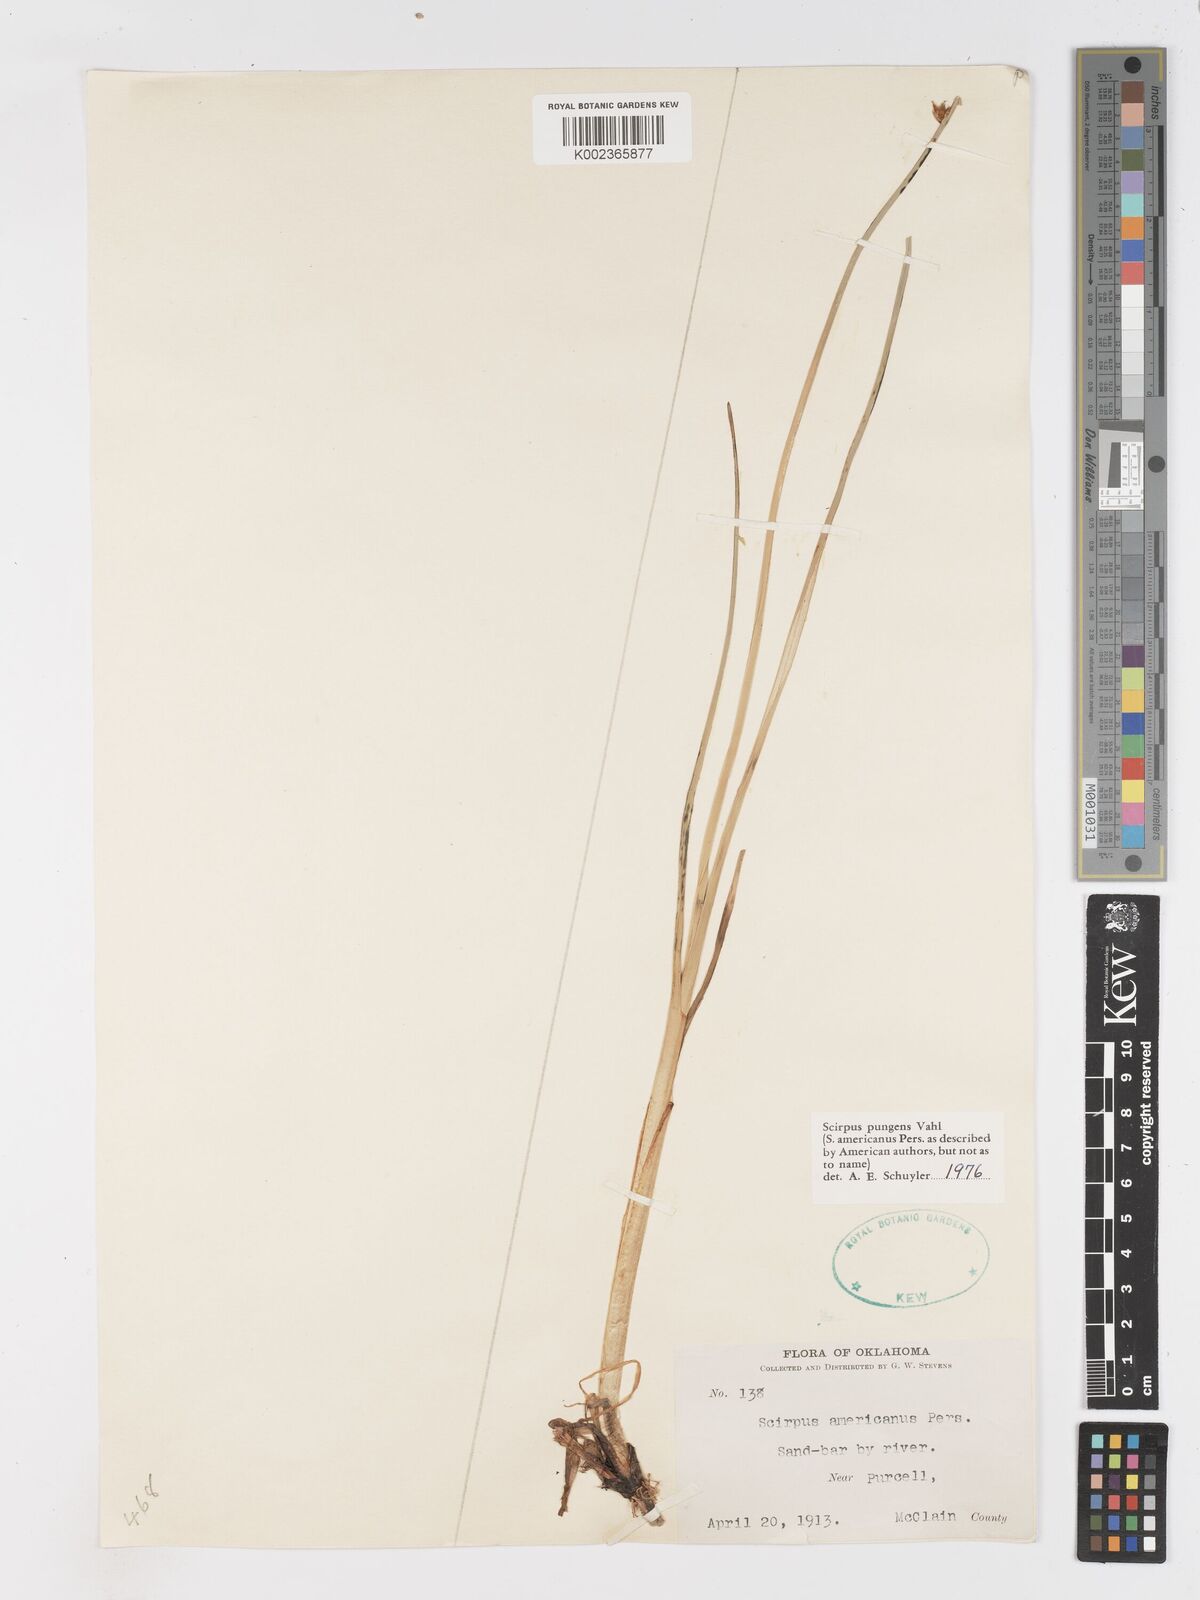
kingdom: Plantae
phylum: Tracheophyta
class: Liliopsida
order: Poales
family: Cyperaceae
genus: Schoenoplectus
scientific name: Schoenoplectus pungens
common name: Sharp club-rush
